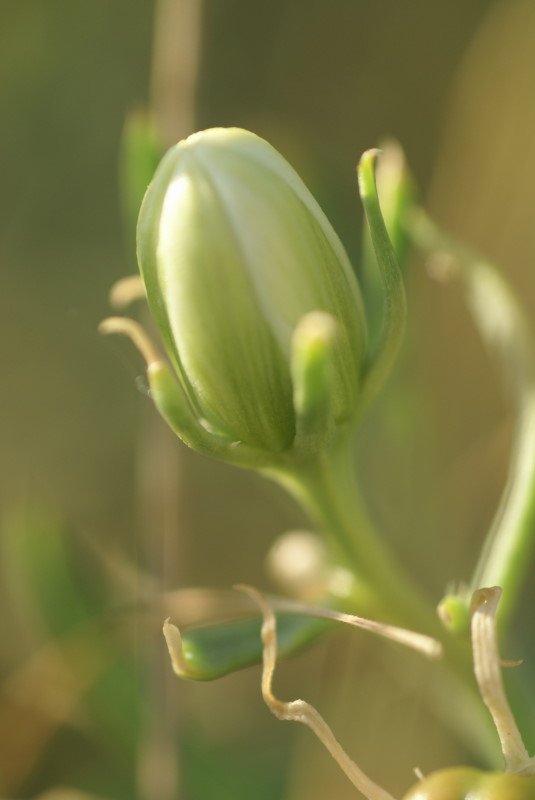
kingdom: Plantae
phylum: Tracheophyta
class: Magnoliopsida
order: Sapindales
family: Tetradiclidaceae
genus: Peganum
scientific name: Peganum harmala
